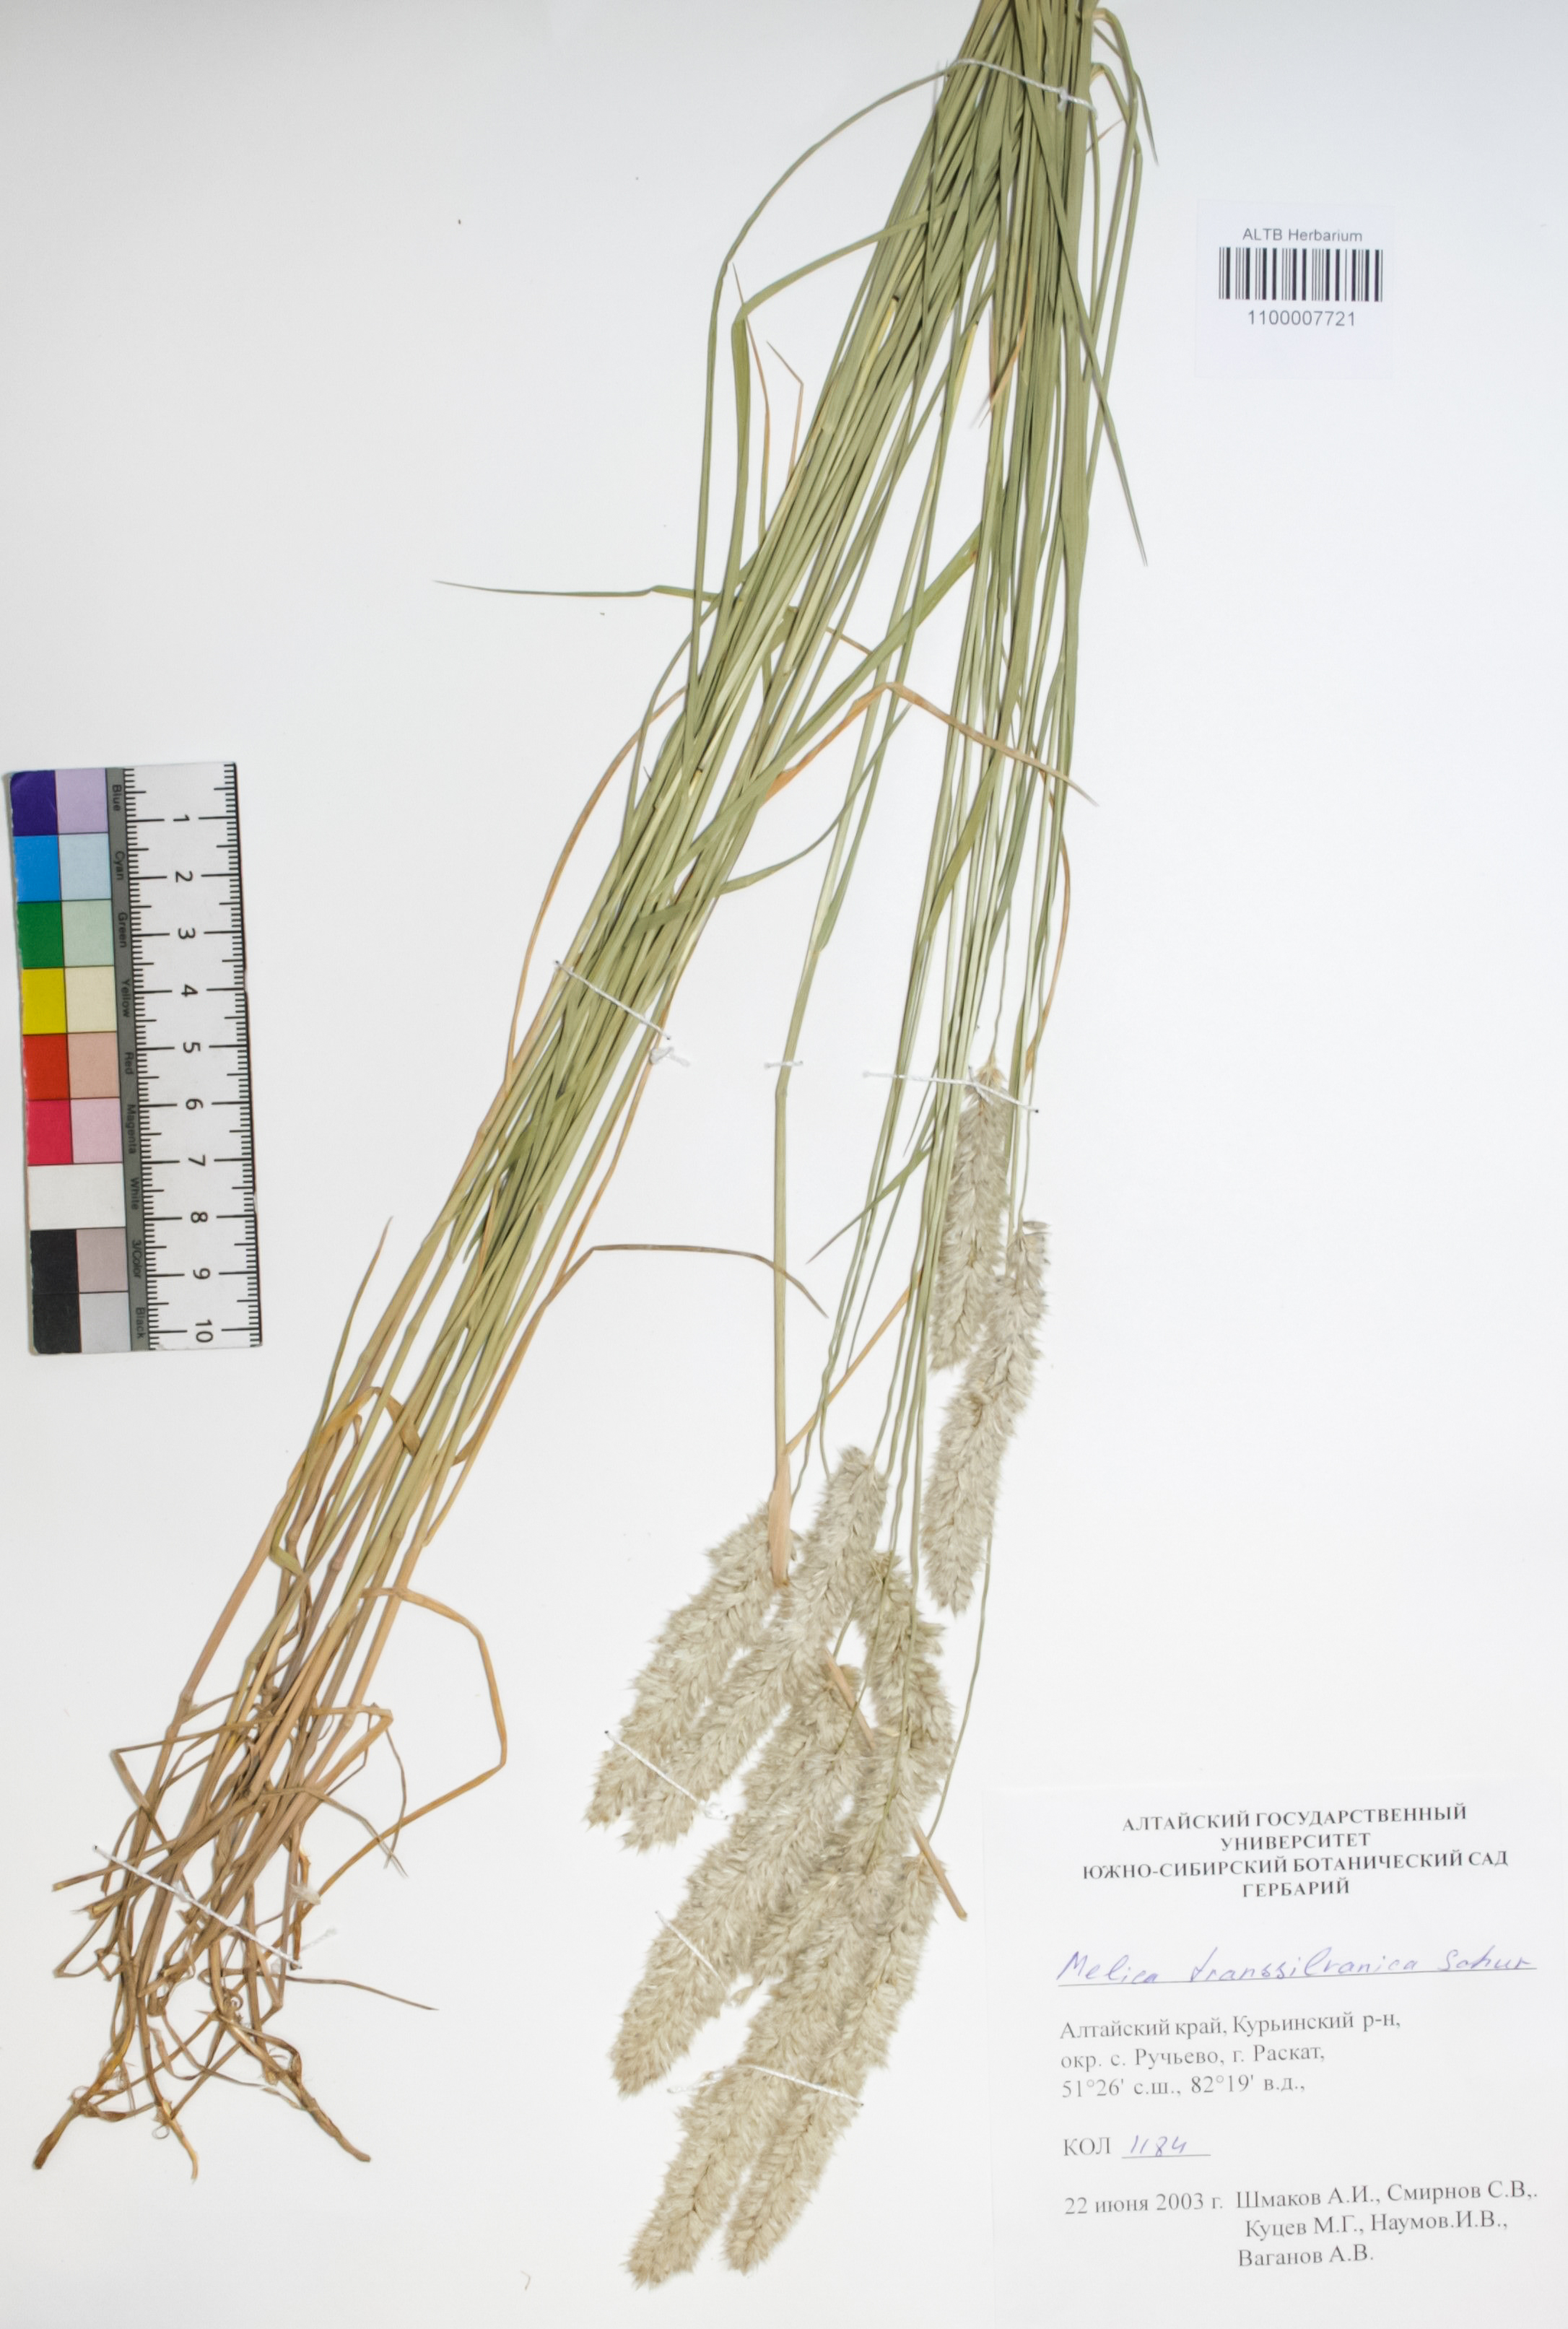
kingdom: Plantae
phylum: Tracheophyta
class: Liliopsida
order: Poales
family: Poaceae
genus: Melica
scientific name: Melica transsilvanica
